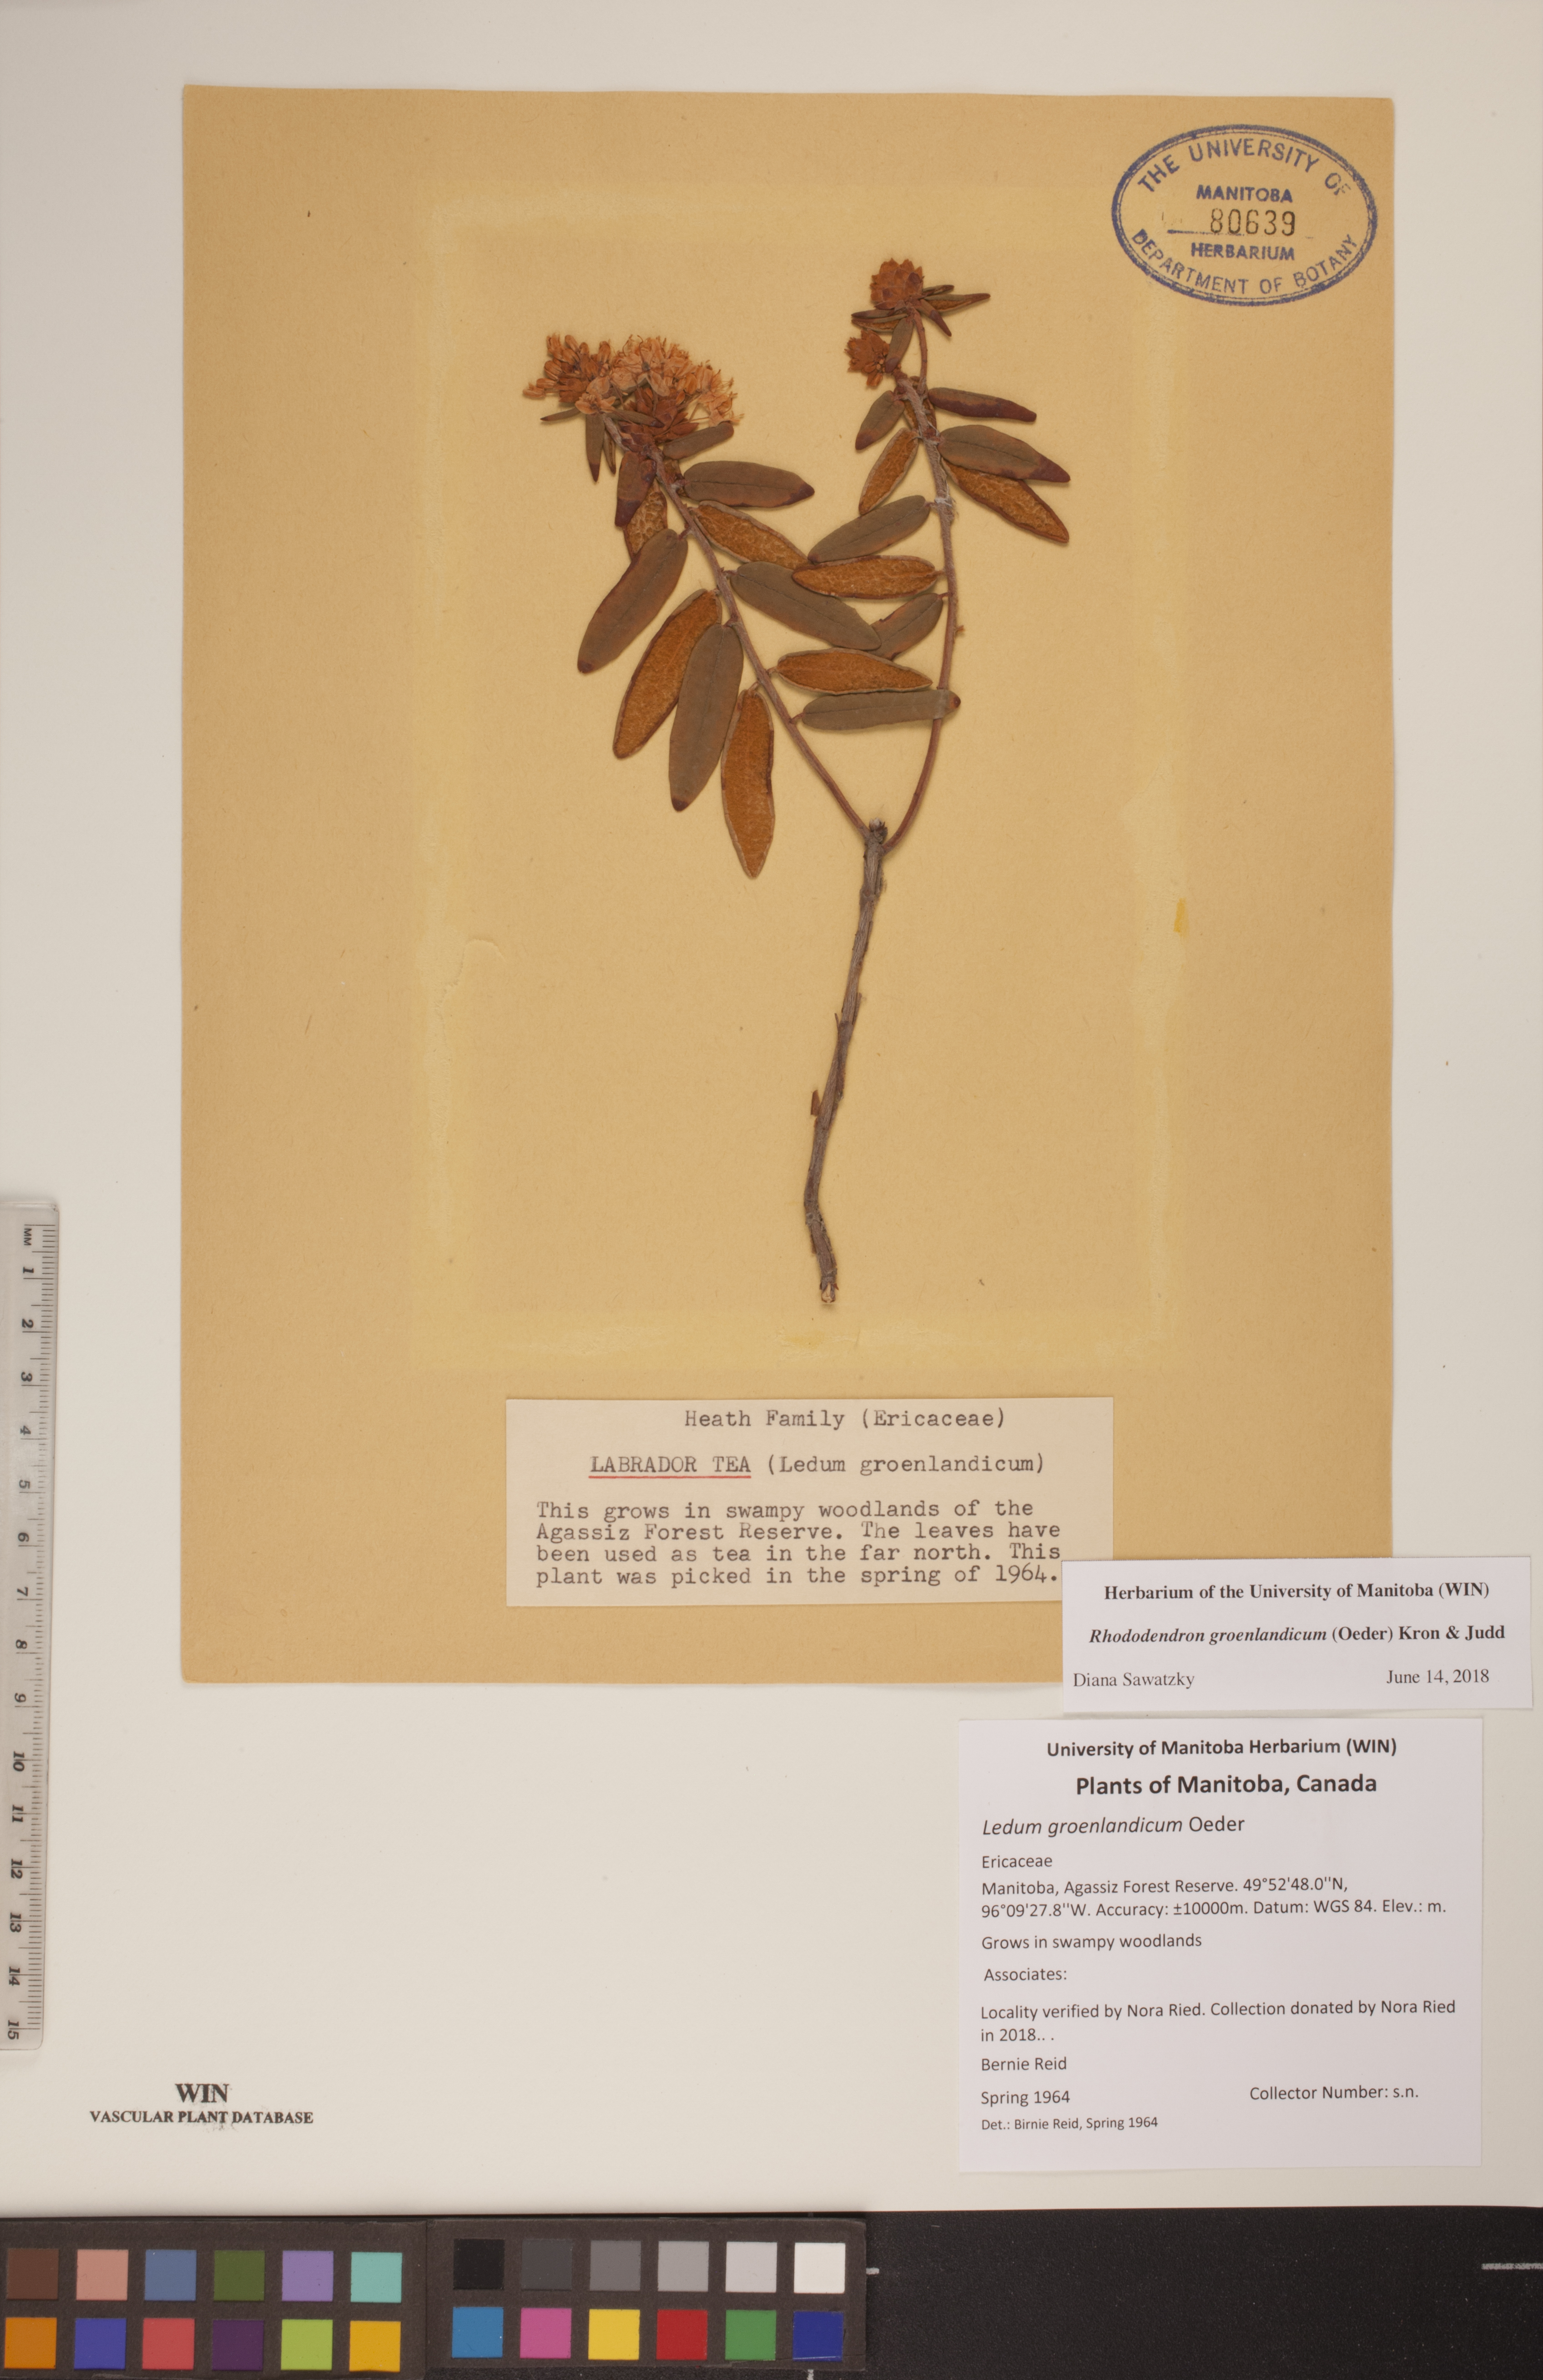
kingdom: Plantae
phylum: Tracheophyta
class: Magnoliopsida
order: Ericales
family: Ericaceae
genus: Rhododendron
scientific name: Rhododendron groenlandicum
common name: Bog labrador tea
